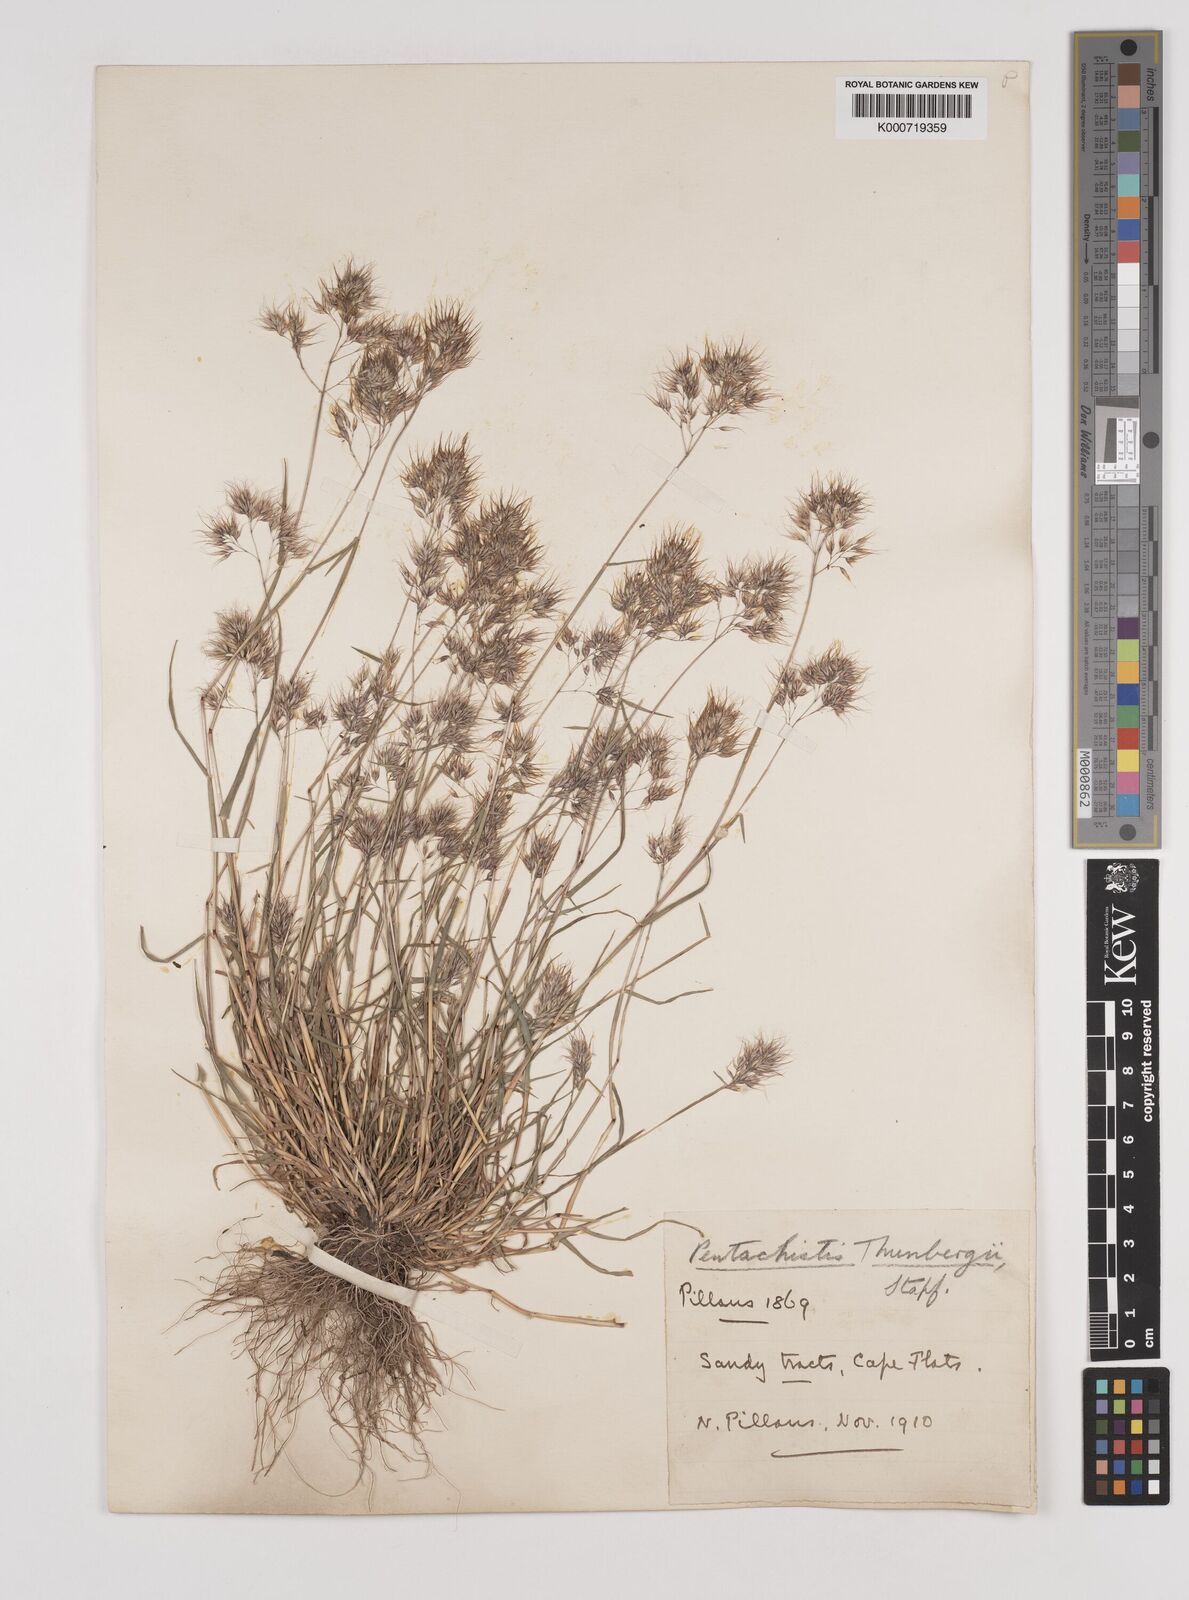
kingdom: Plantae
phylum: Tracheophyta
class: Liliopsida
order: Poales
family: Poaceae
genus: Pentameris
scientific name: Pentameris triseta
